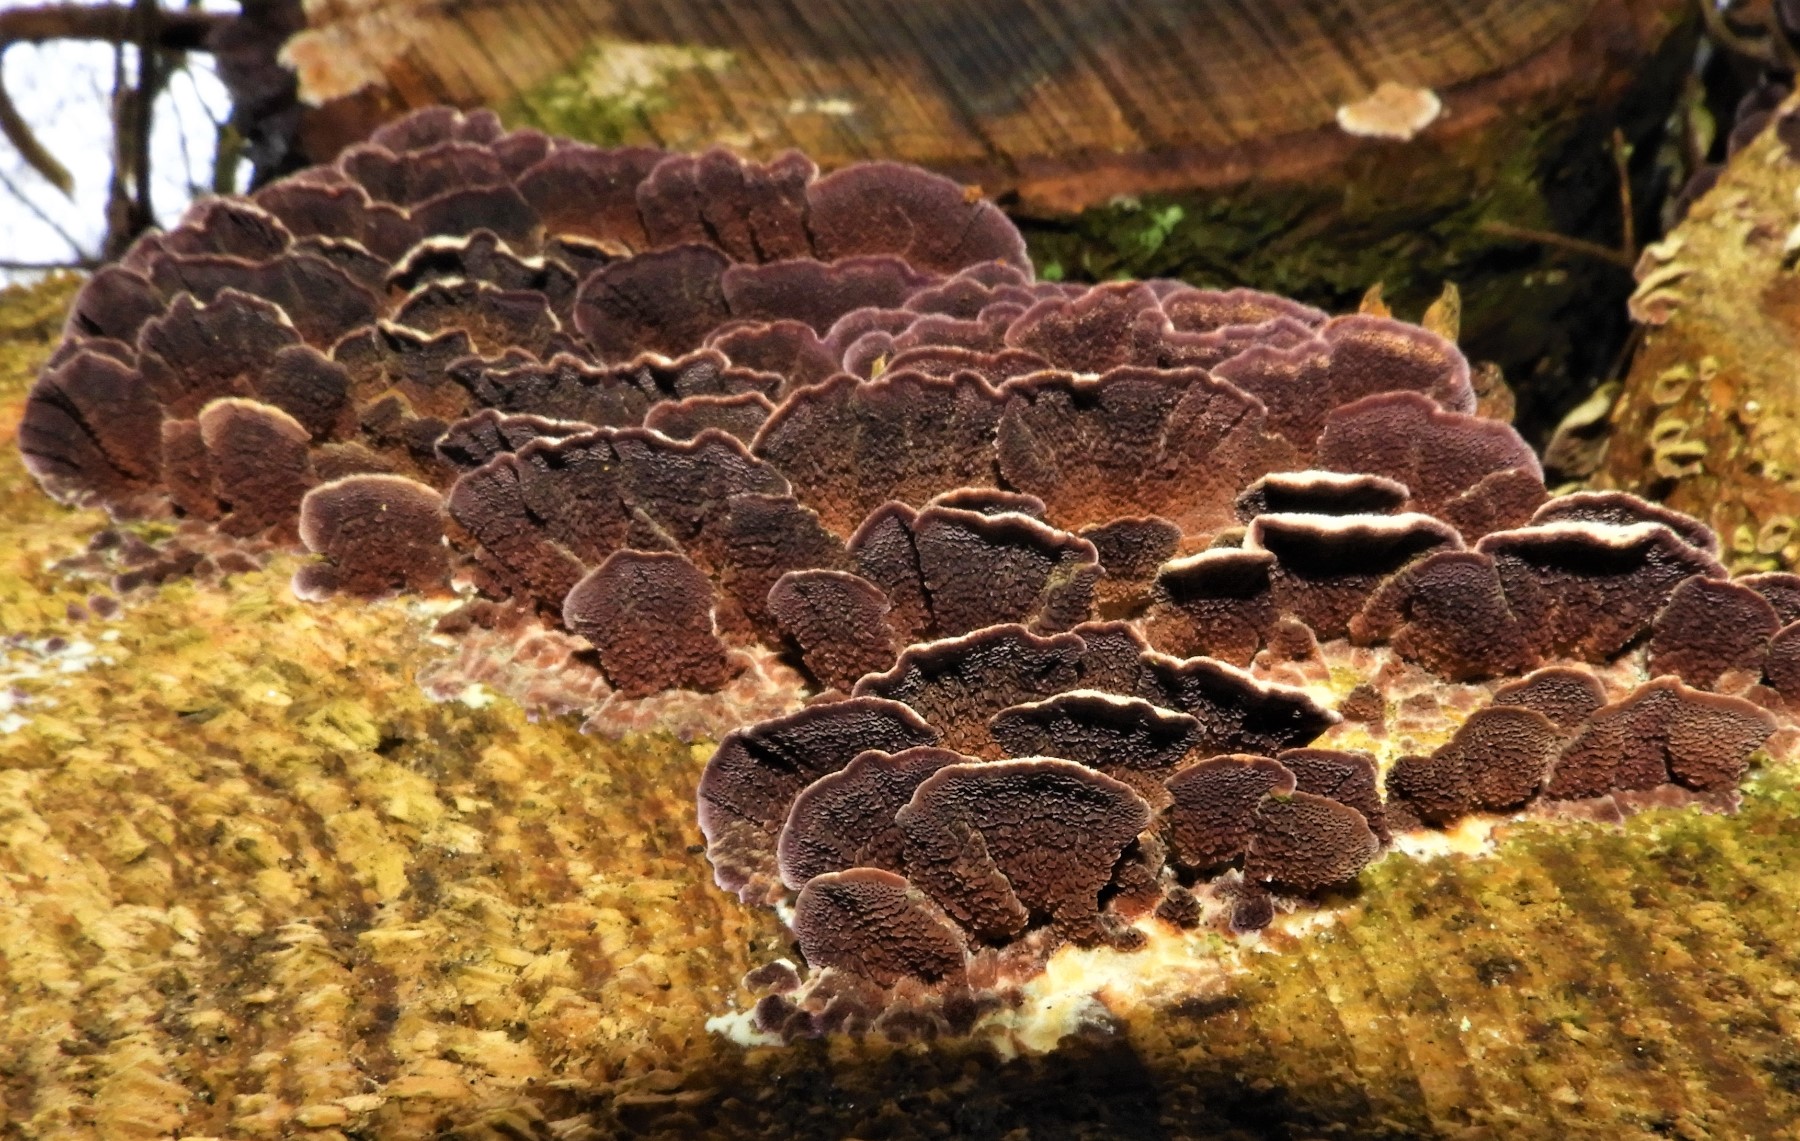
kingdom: Fungi
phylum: Basidiomycota
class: Agaricomycetes
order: Hymenochaetales
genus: Trichaptum
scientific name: Trichaptum abietinum
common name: almindelig violporesvamp
